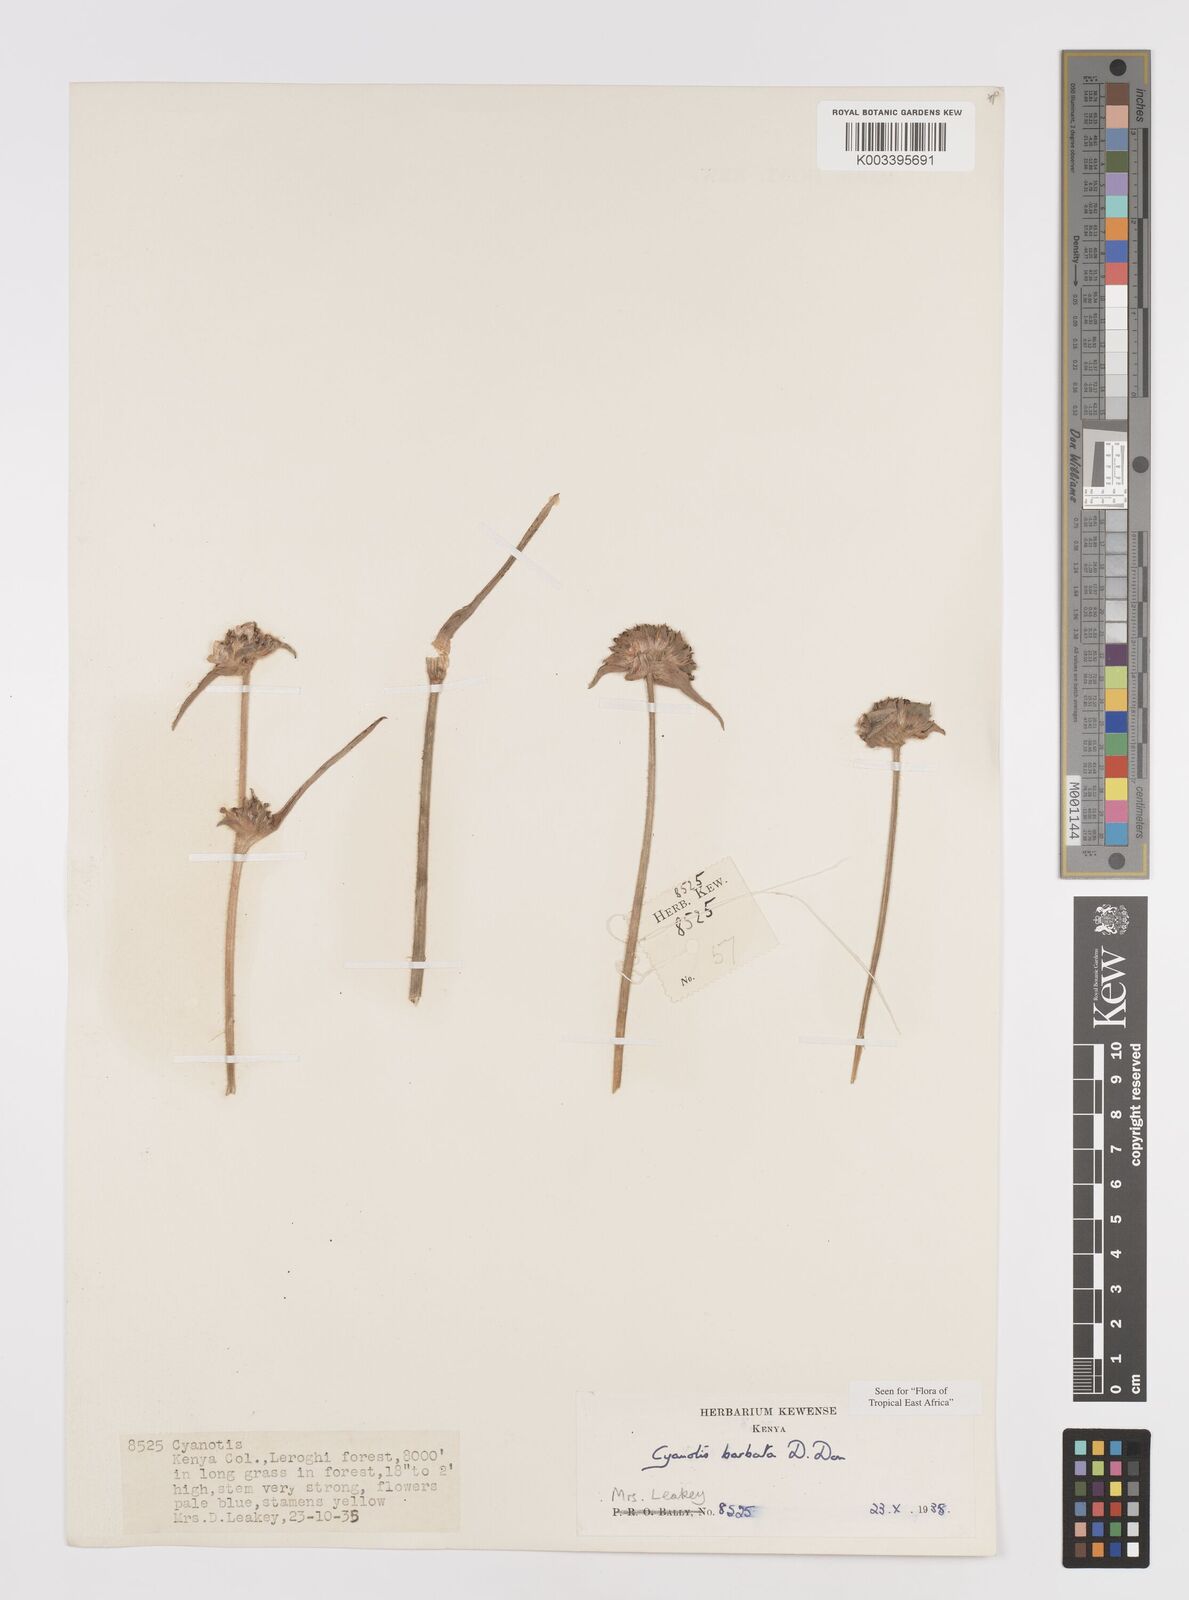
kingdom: Plantae
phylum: Tracheophyta
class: Liliopsida
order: Commelinales
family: Commelinaceae
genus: Cyanotis
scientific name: Cyanotis vaga
